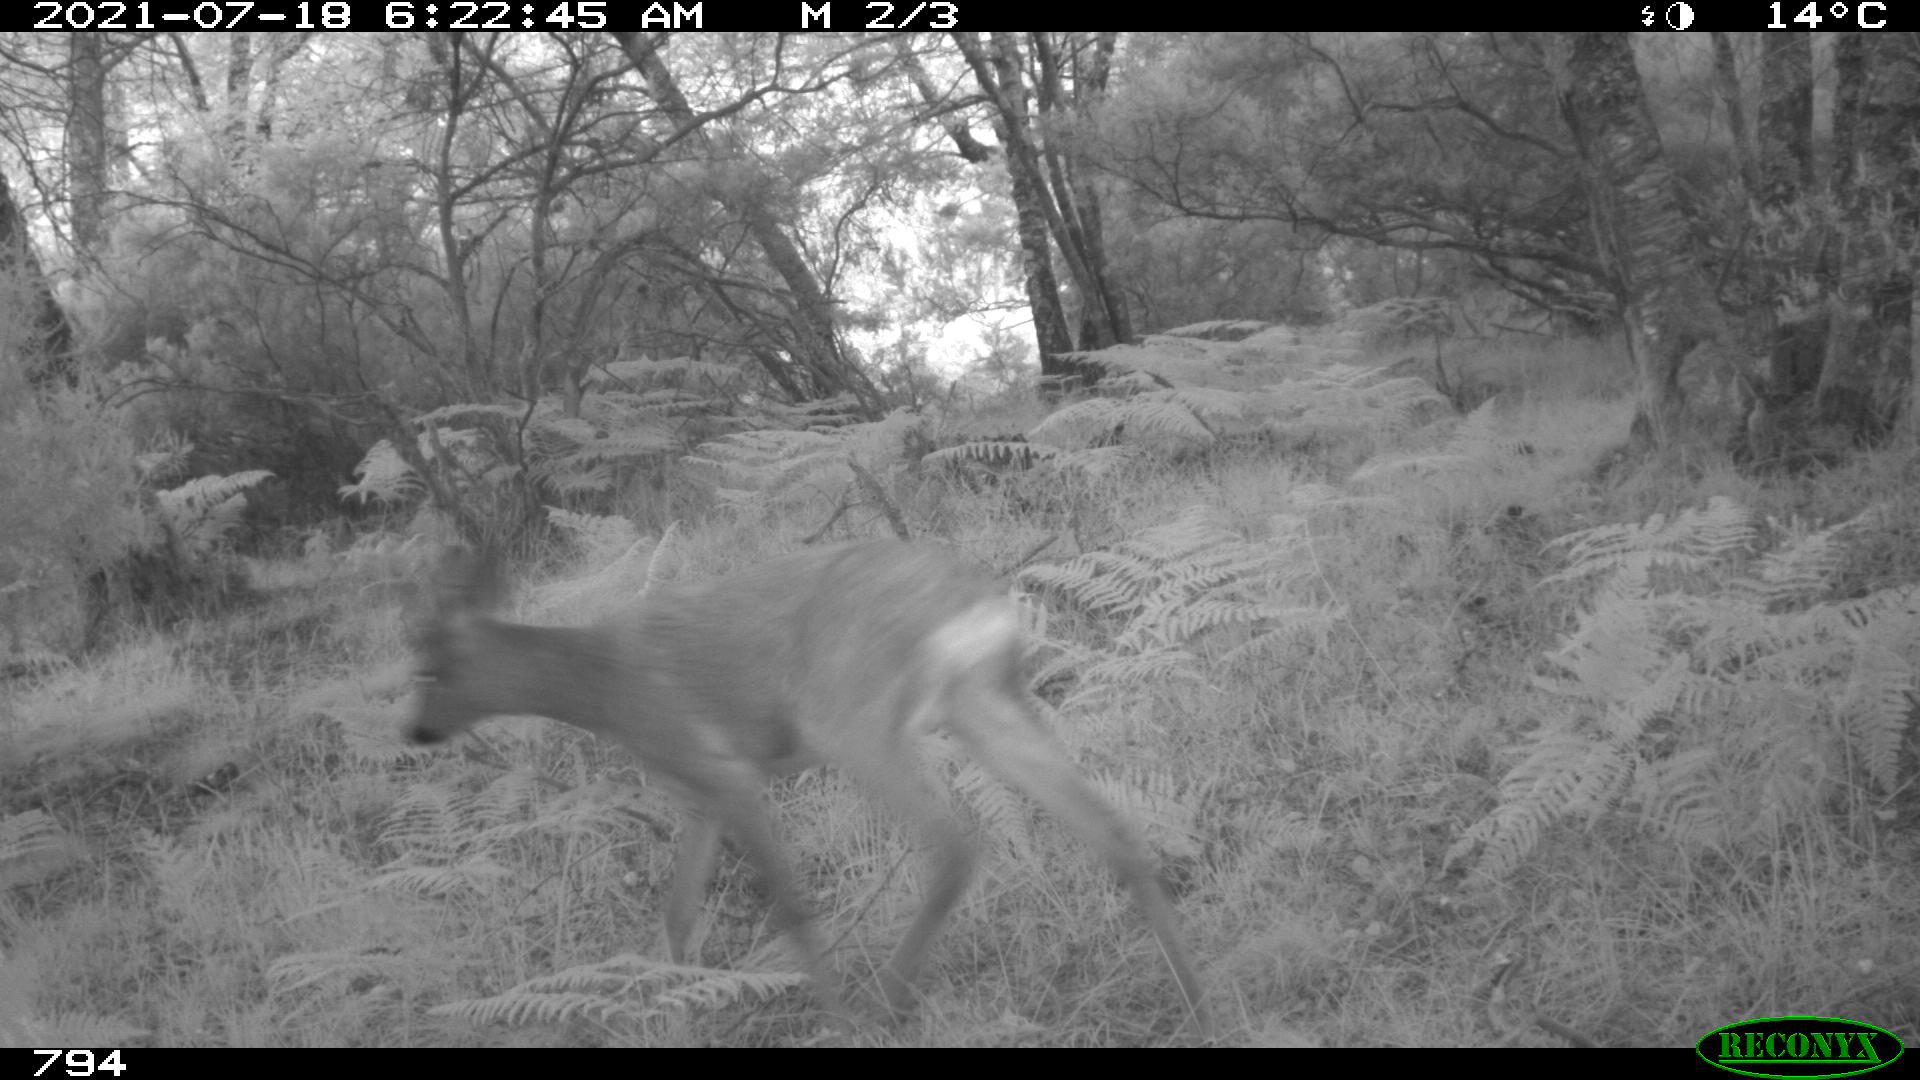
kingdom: Animalia
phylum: Chordata
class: Mammalia
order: Artiodactyla
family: Cervidae
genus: Capreolus
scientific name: Capreolus capreolus
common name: Western roe deer
